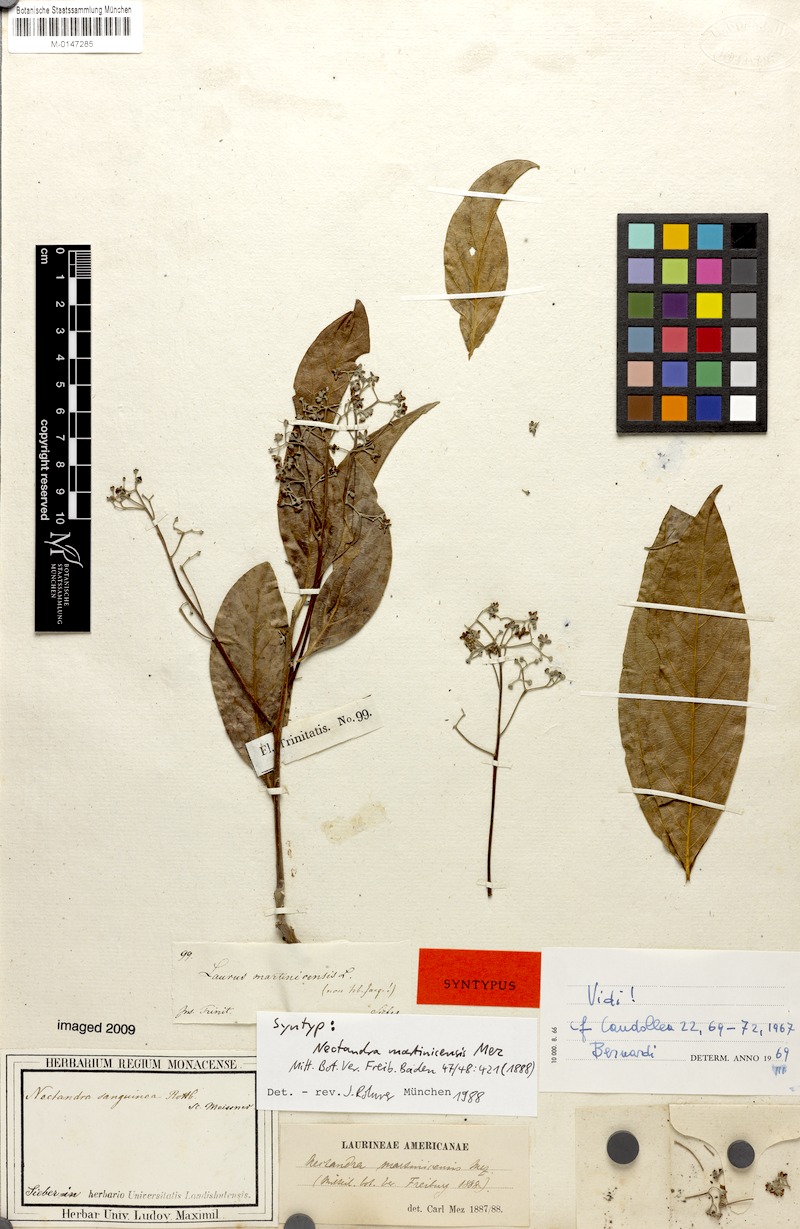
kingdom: Plantae
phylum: Tracheophyta
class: Magnoliopsida
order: Laurales
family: Lauraceae
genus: Damburneya
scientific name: Damburneya martinicensis
